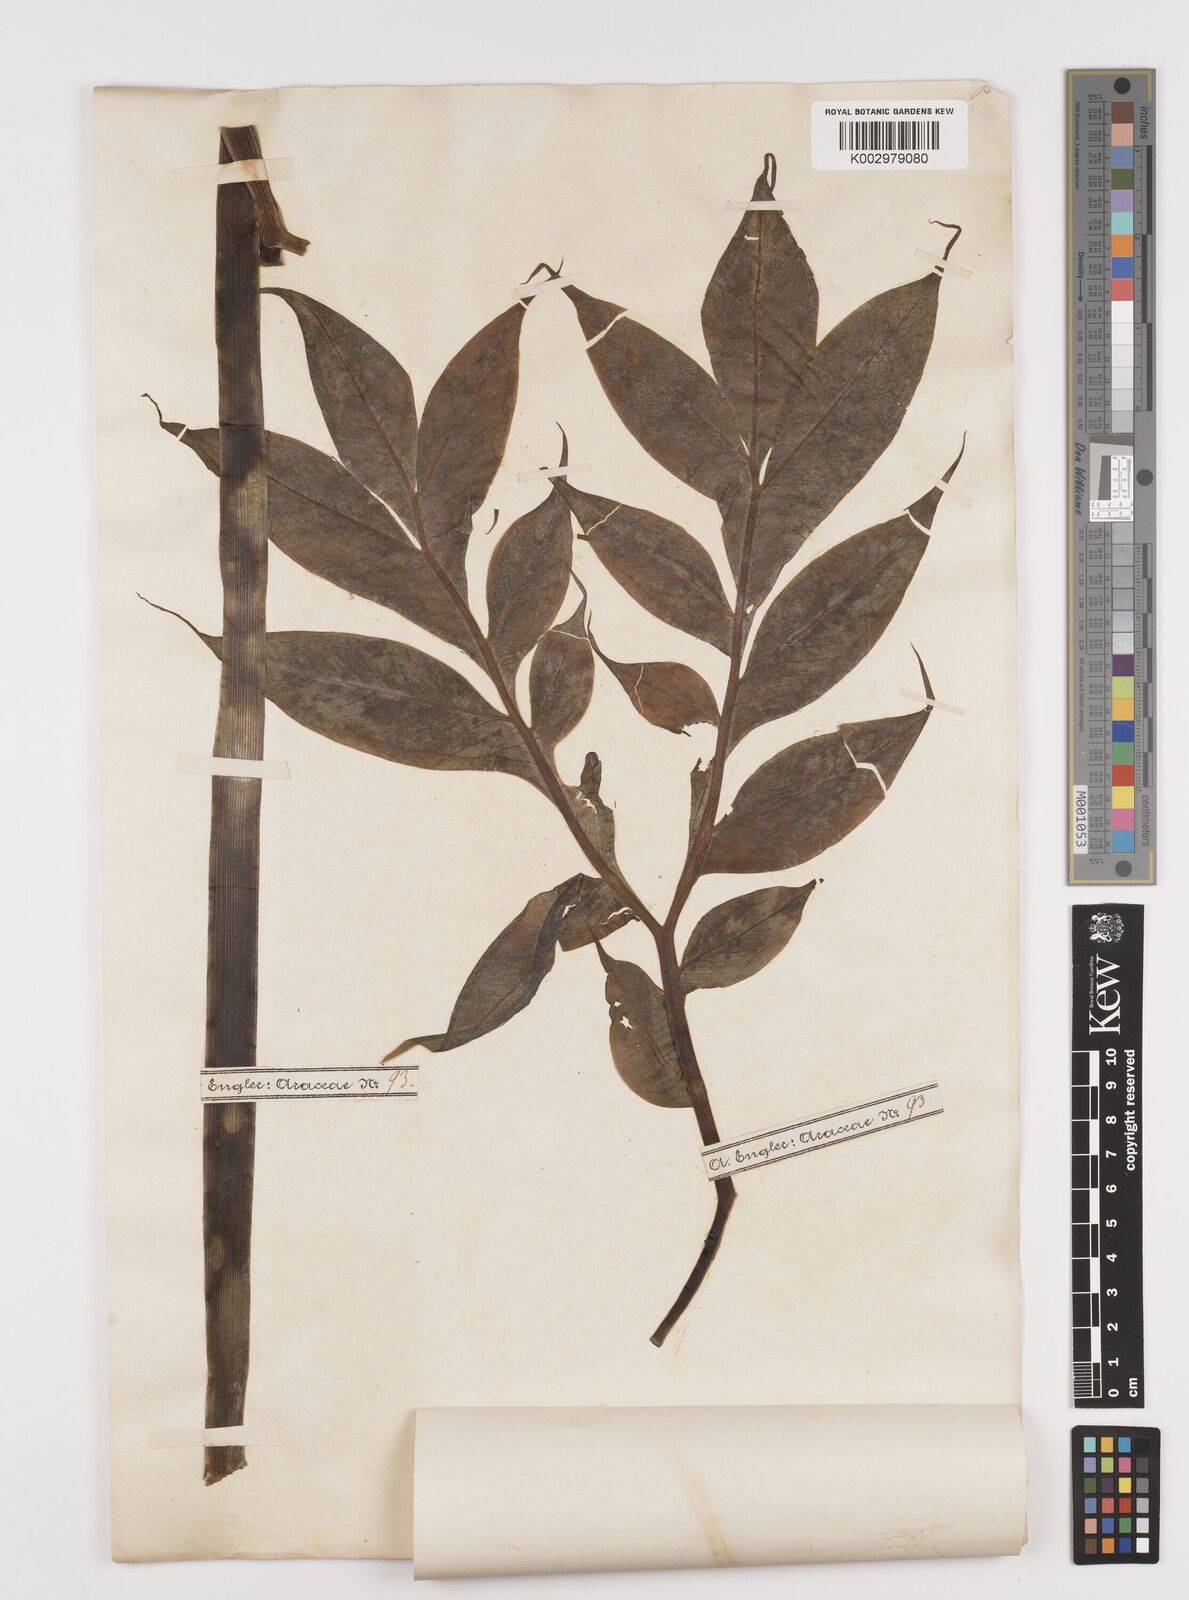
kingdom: Plantae
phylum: Tracheophyta
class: Liliopsida
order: Alismatales
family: Araceae
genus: Amorphophallus
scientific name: Amorphophallus hildebrandtii
